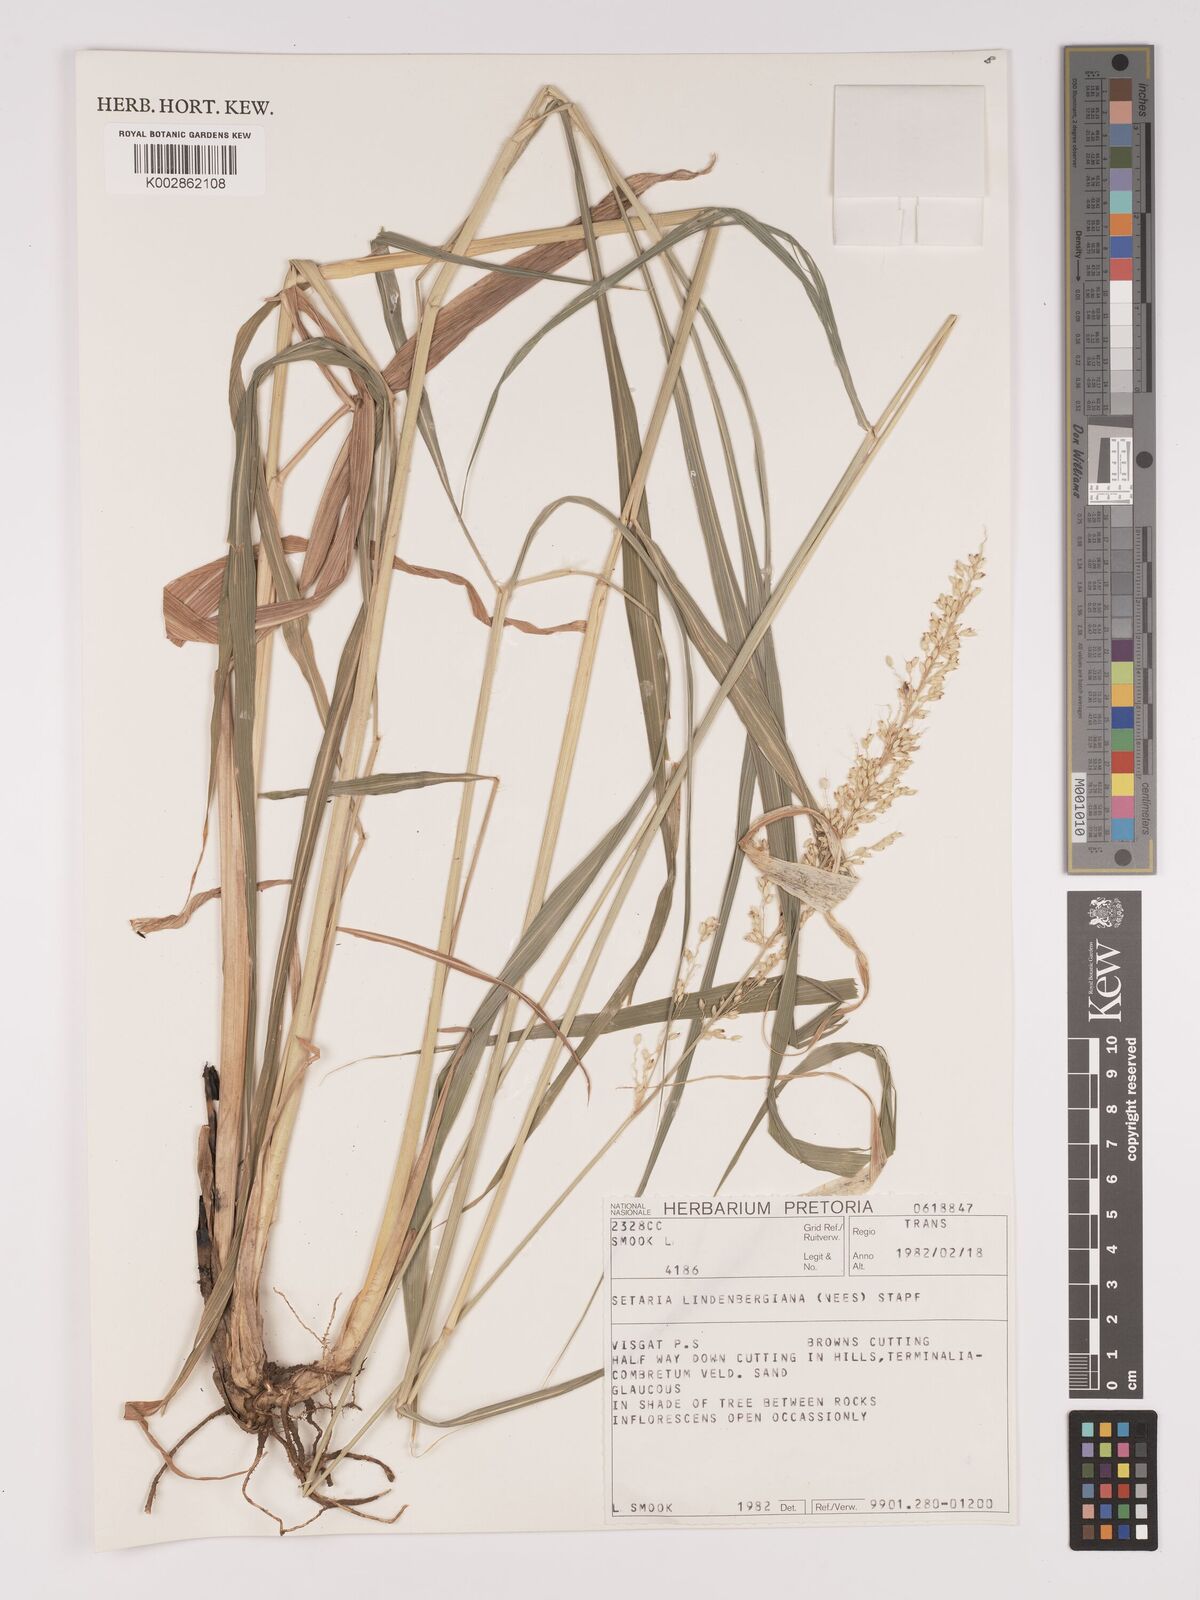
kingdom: Plantae
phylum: Tracheophyta
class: Liliopsida
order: Poales
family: Poaceae
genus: Setaria
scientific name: Setaria lindenbergiana
